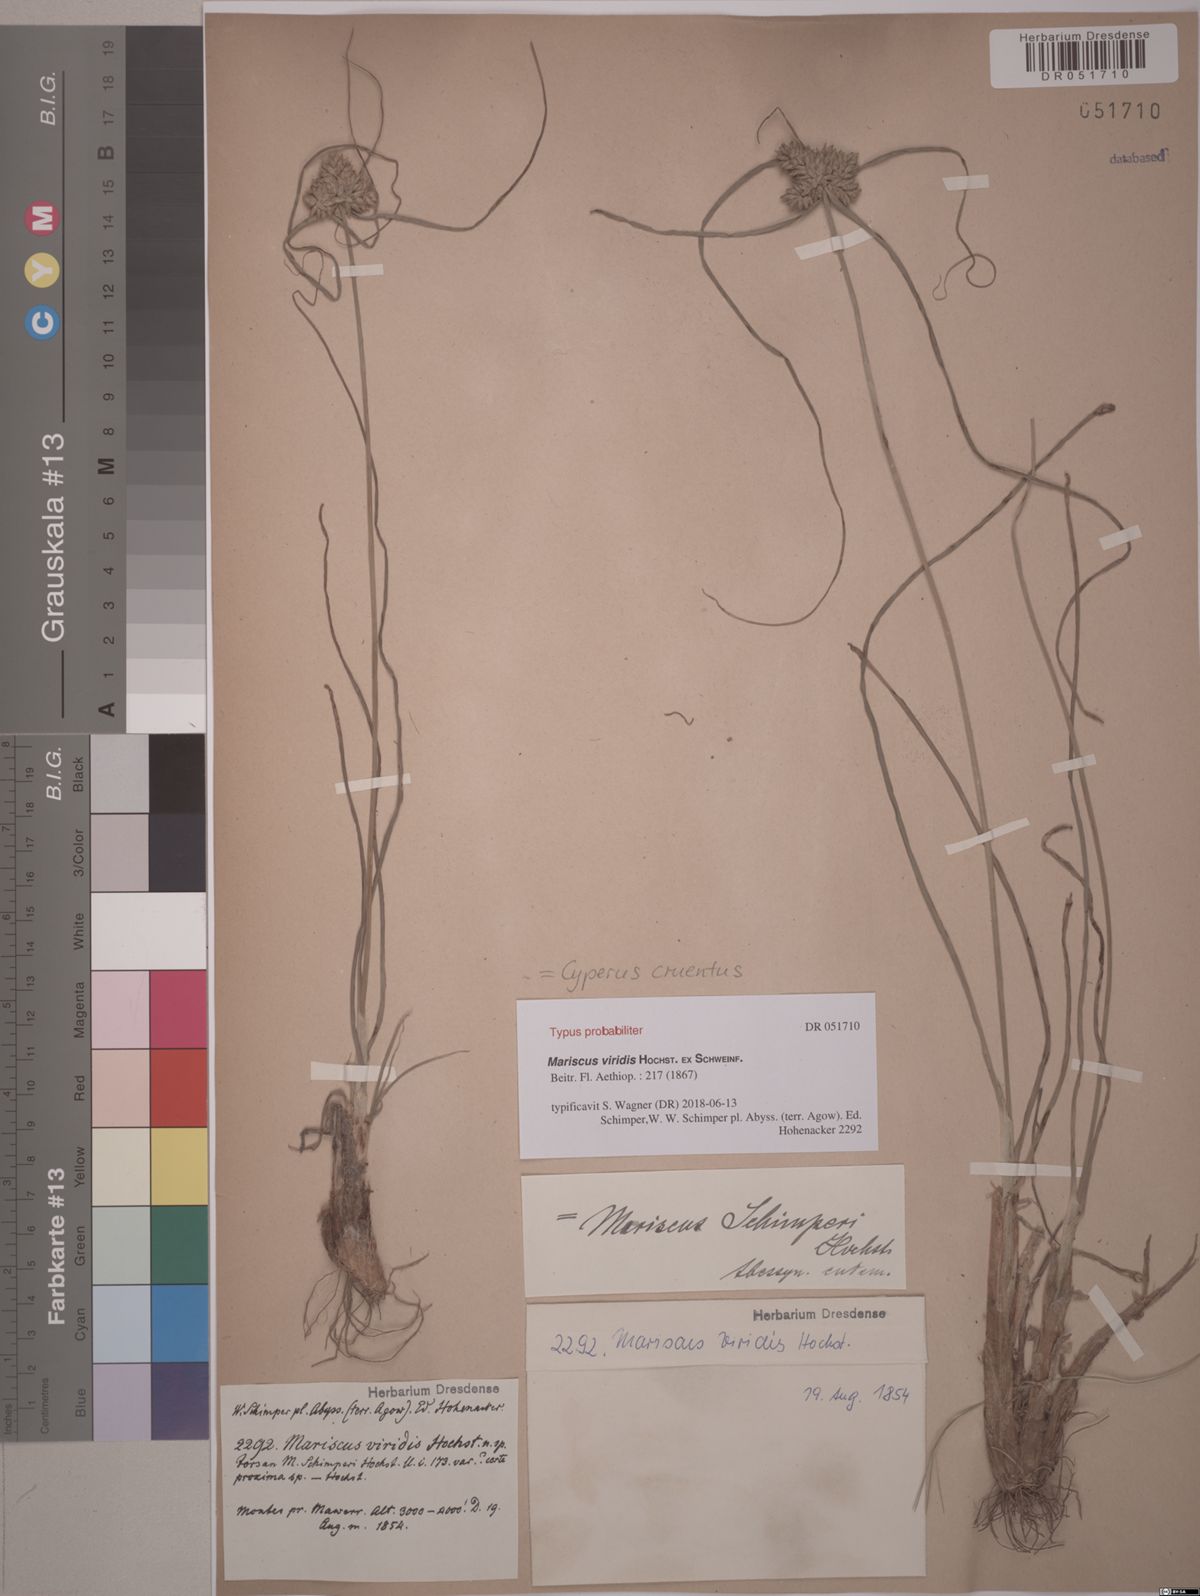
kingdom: Plantae
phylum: Tracheophyta
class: Liliopsida
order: Poales
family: Cyperaceae
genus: Cyperus
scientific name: Cyperus cruentus
